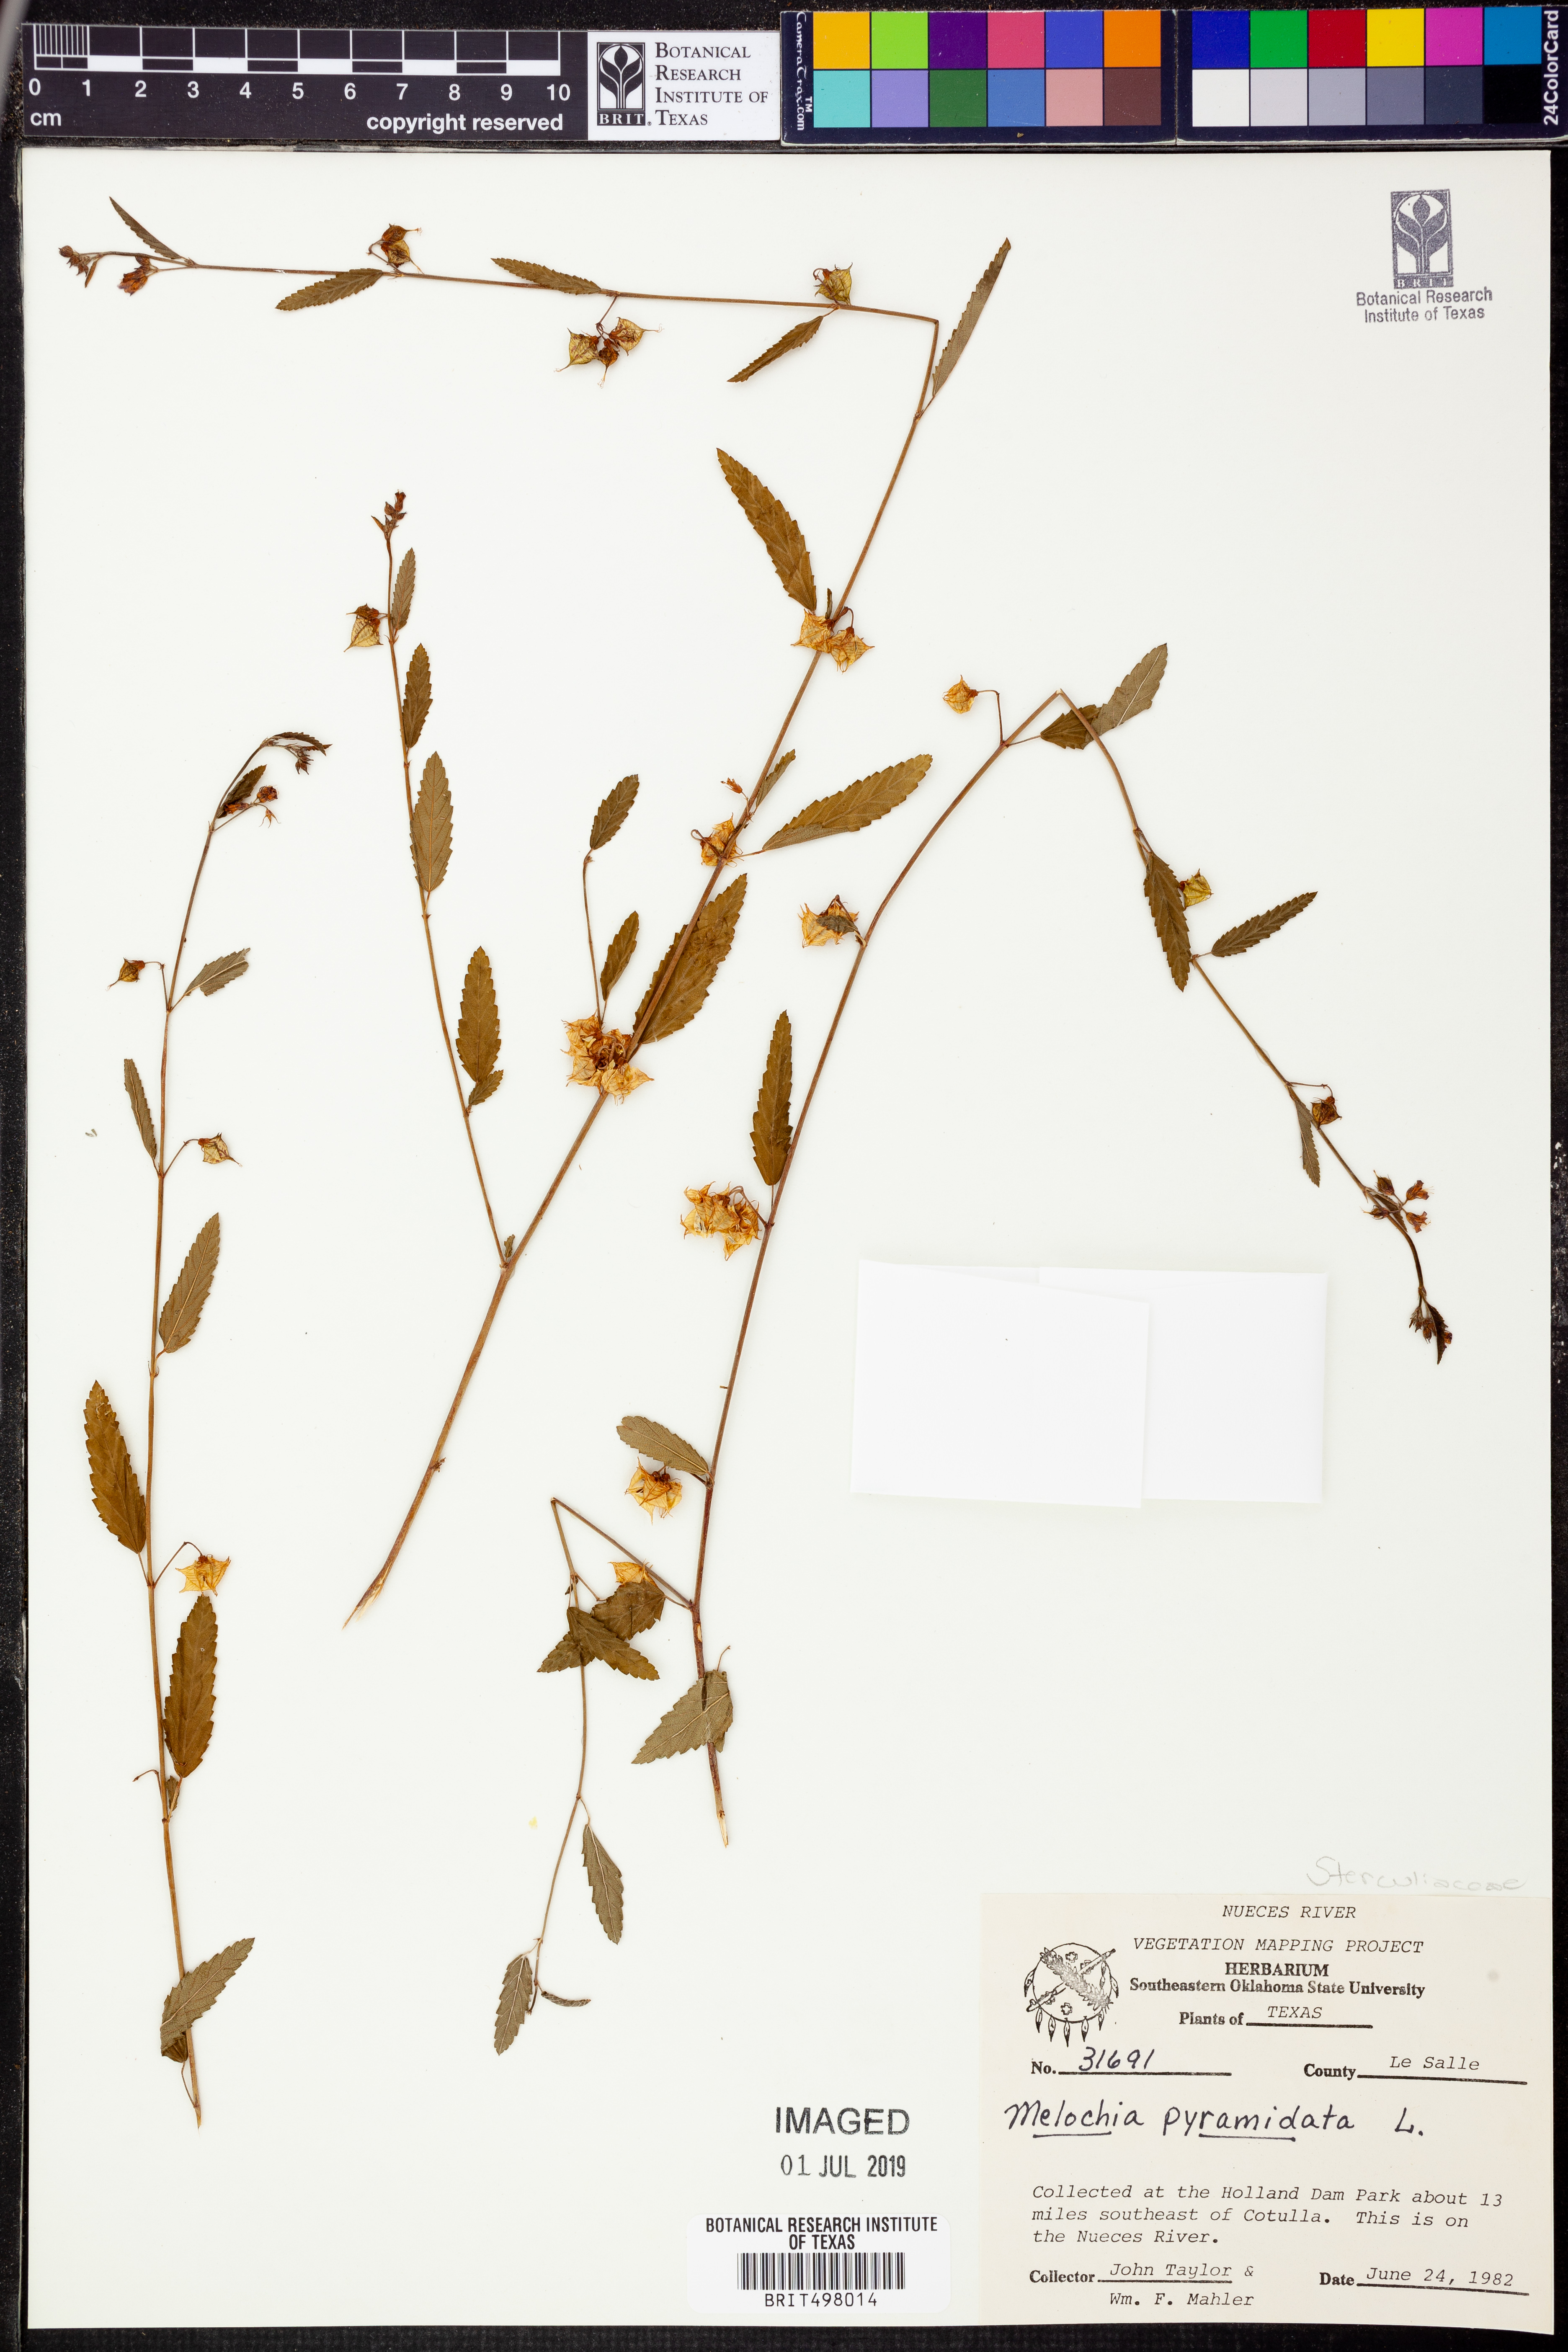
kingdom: Plantae
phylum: Tracheophyta
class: Magnoliopsida
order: Malvales
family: Malvaceae
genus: Melochia
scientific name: Melochia pyramidata
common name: Pyramidflower
